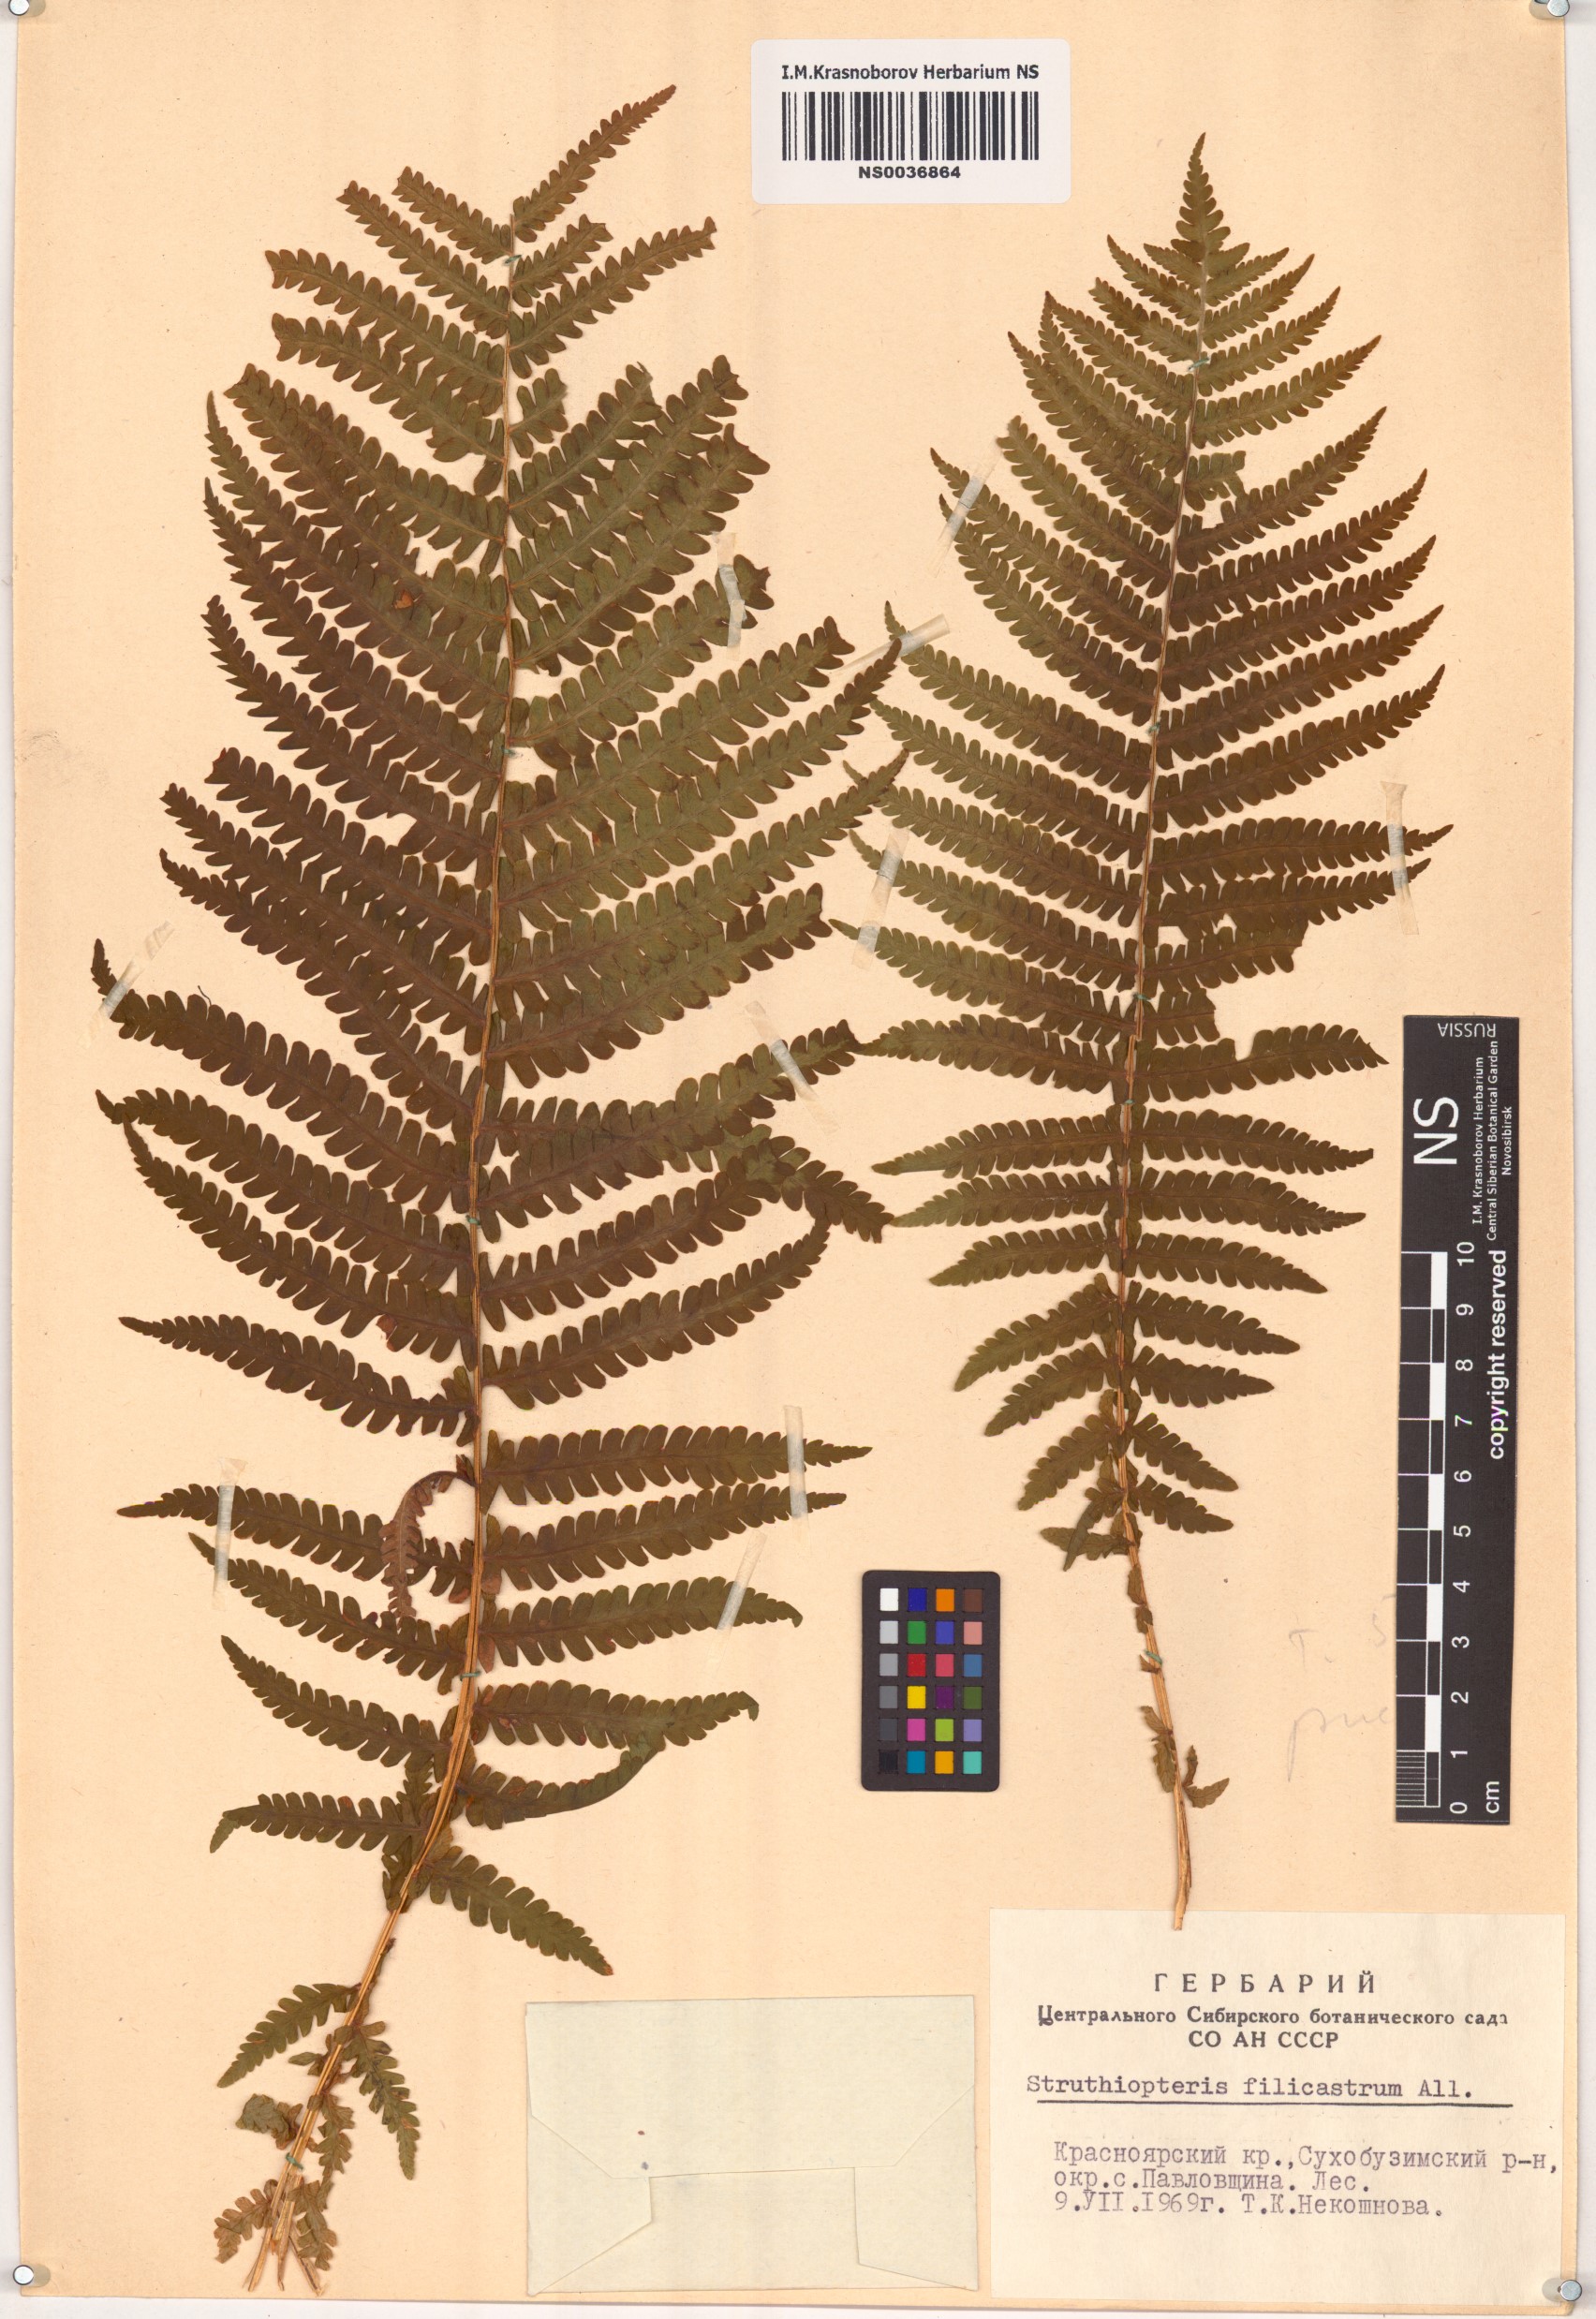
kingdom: Plantae
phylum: Tracheophyta
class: Polypodiopsida
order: Polypodiales
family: Onocleaceae
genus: Matteuccia
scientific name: Matteuccia struthiopteris
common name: Ostrich fern
